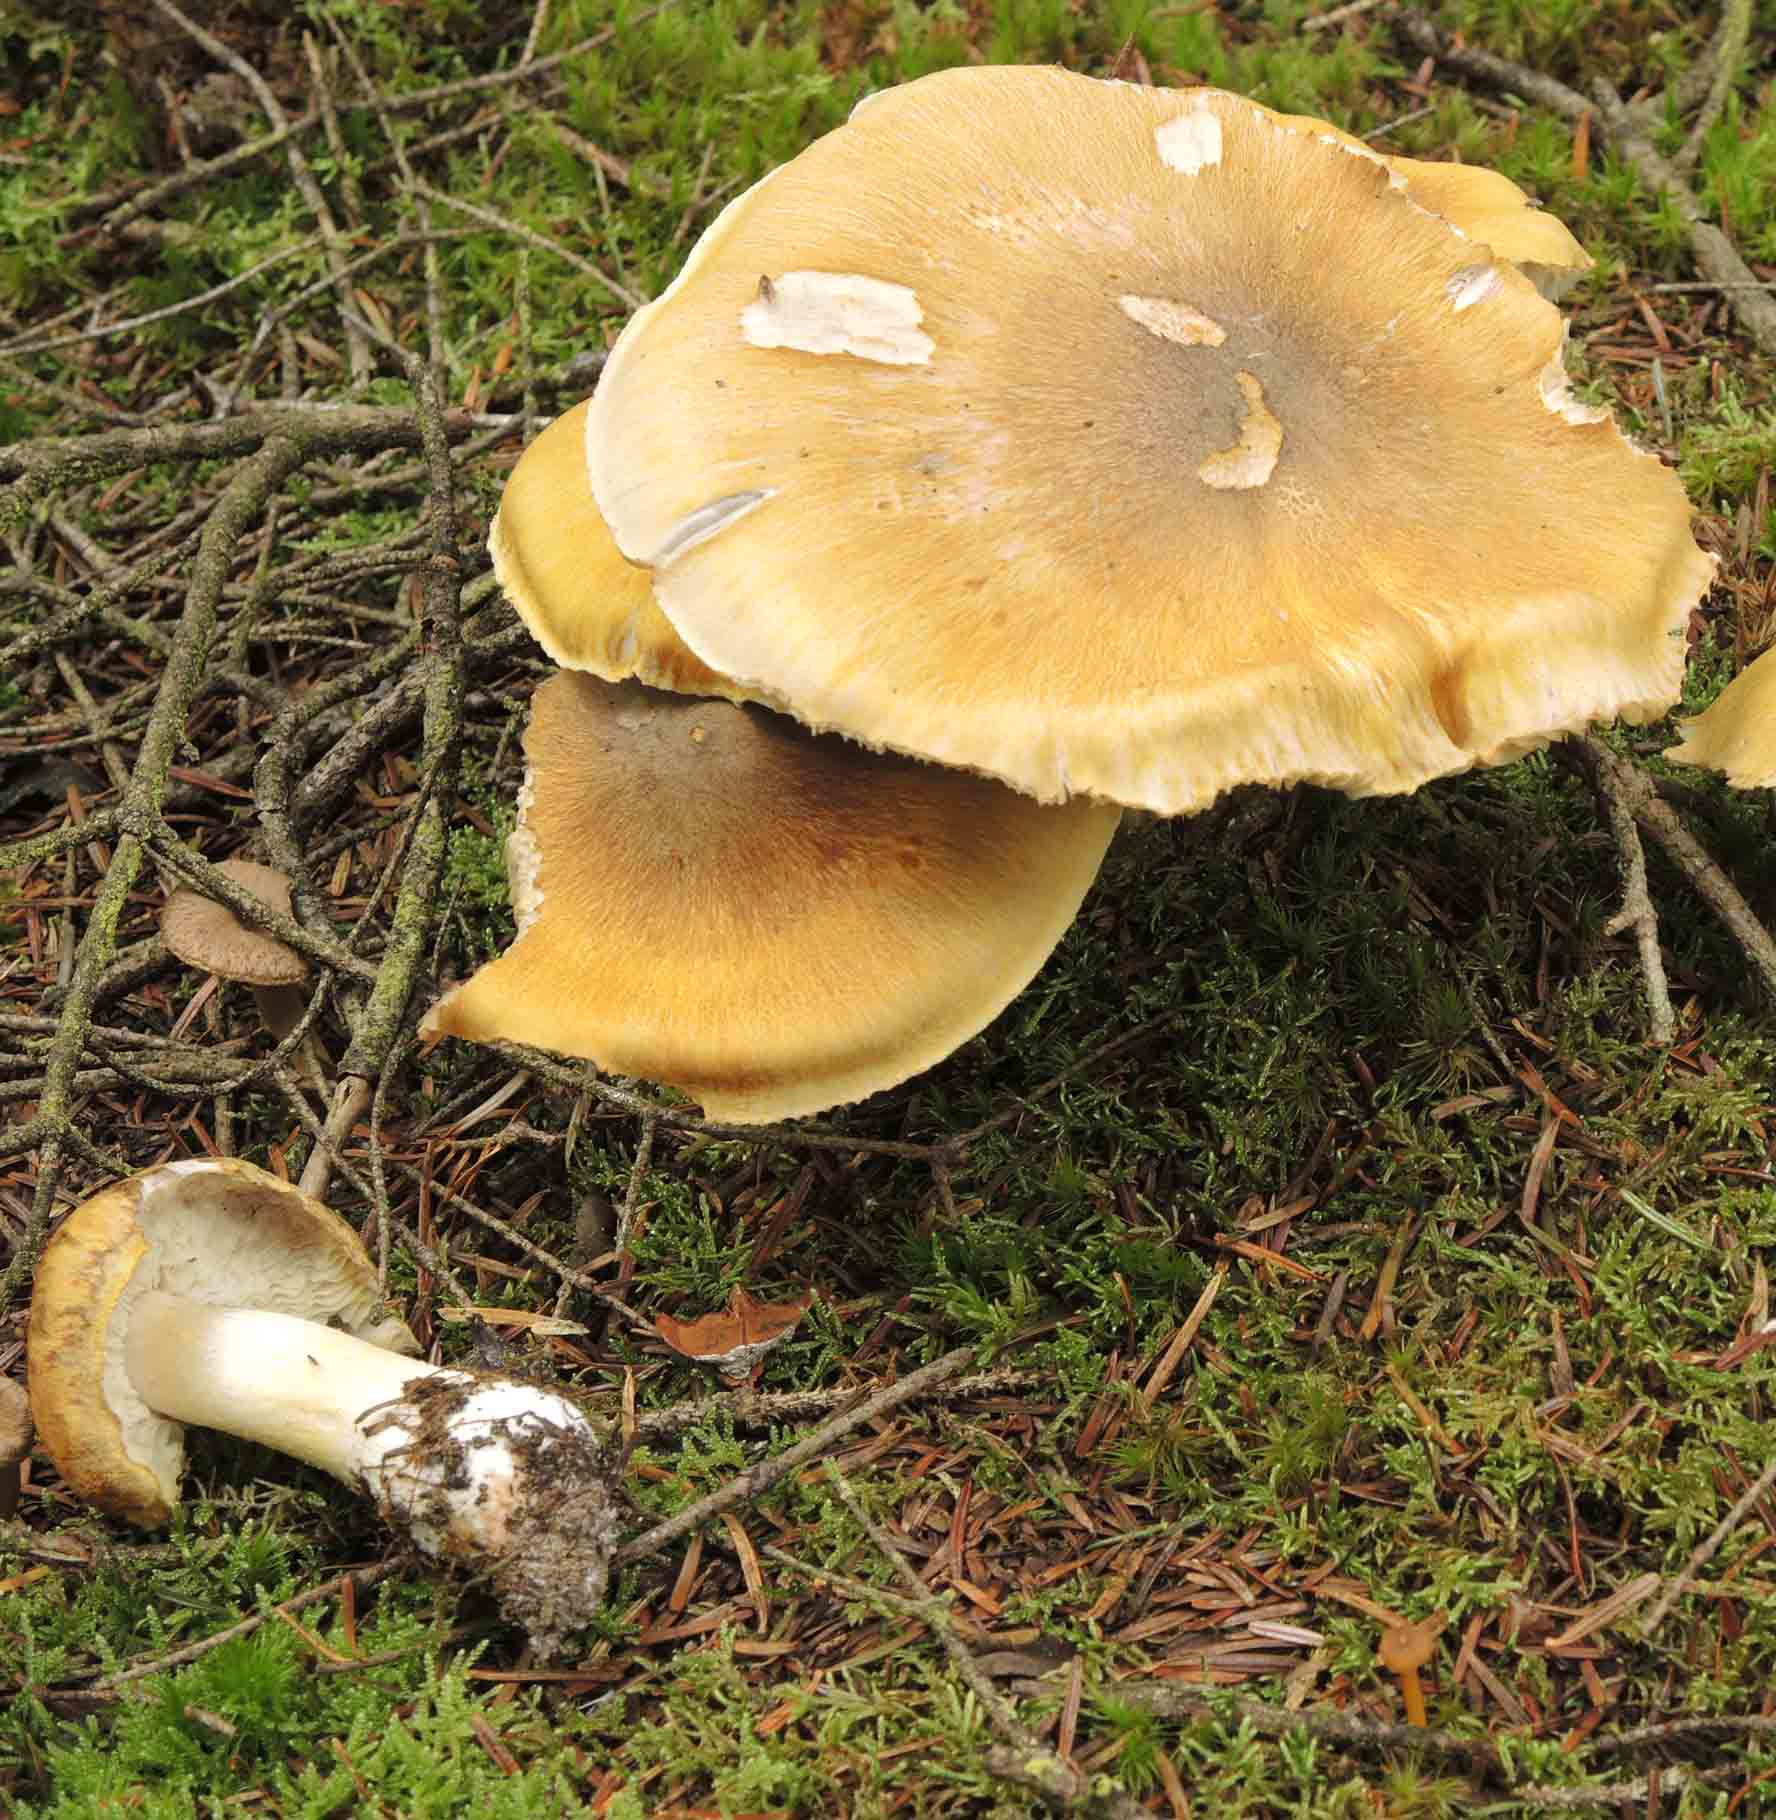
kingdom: Fungi
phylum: Basidiomycota
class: Agaricomycetes
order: Agaricales
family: Tricholomataceae
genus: Tricholoma
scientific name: Tricholoma arvernense
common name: kantet ridderhat
